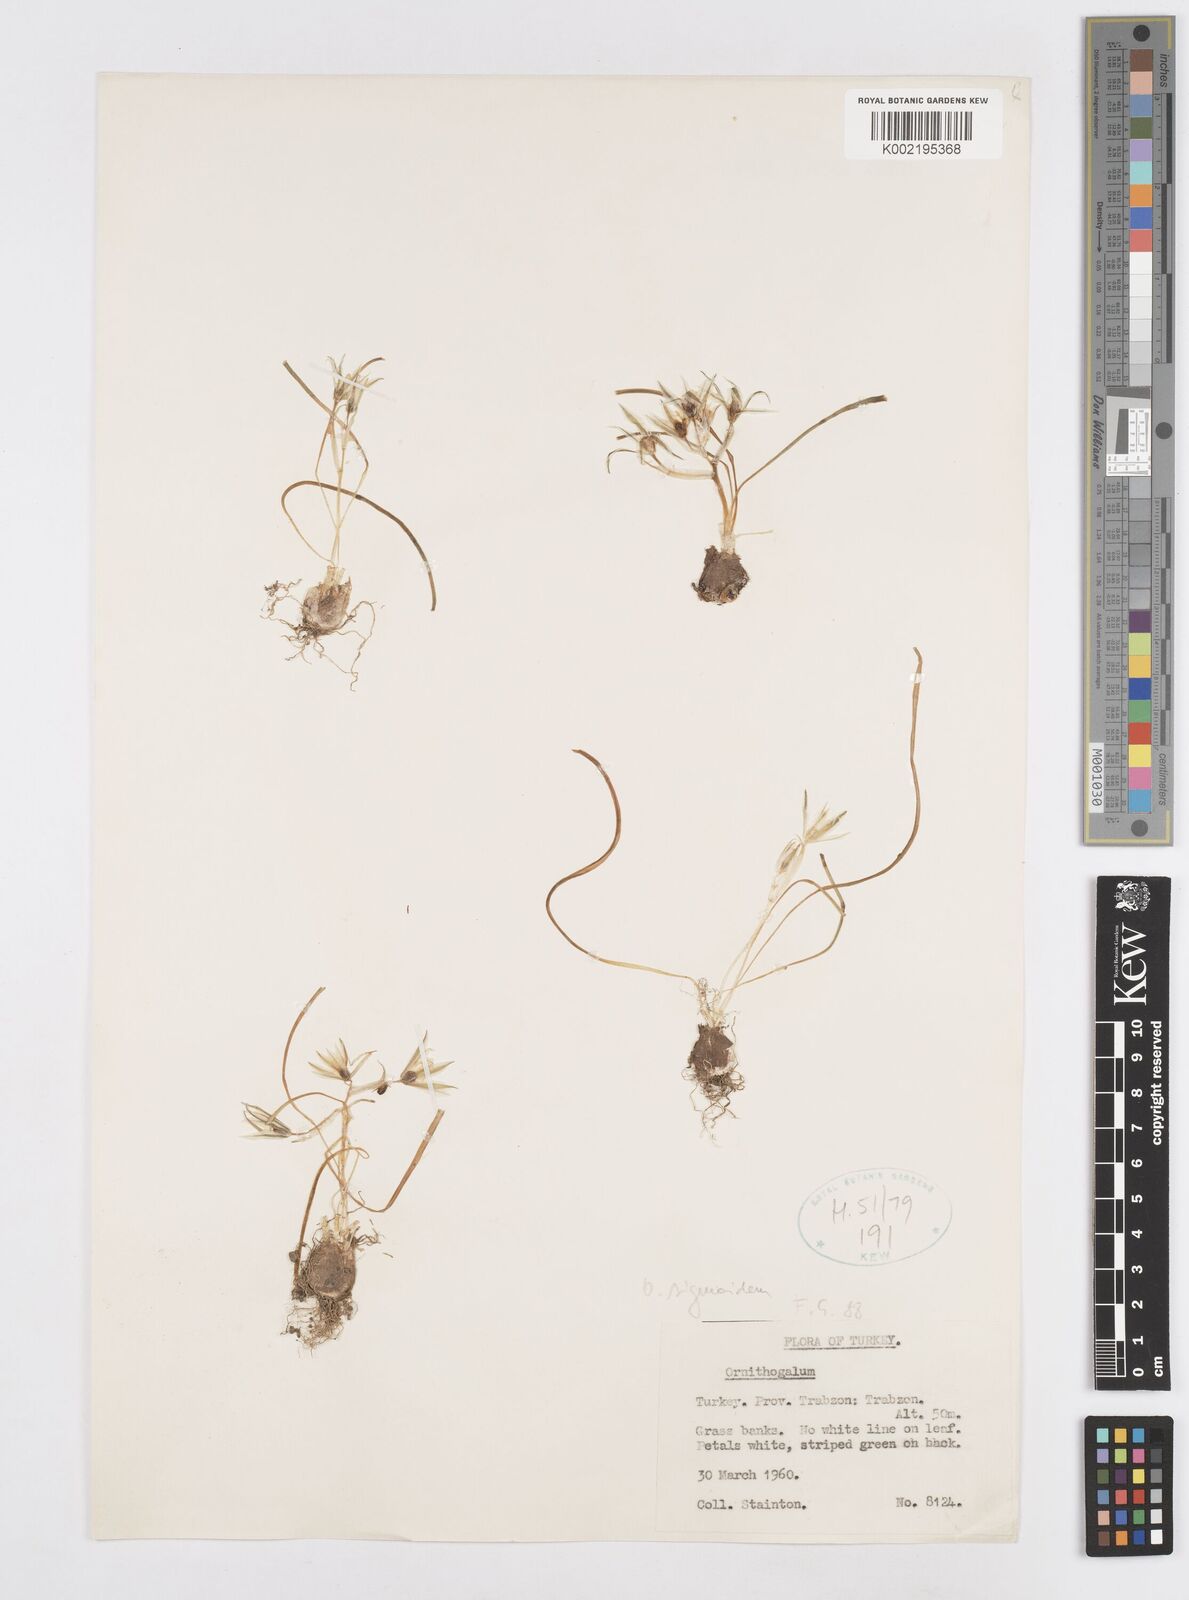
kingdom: Plantae
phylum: Tracheophyta
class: Liliopsida
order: Asparagales
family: Asparagaceae
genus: Ornithogalum
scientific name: Ornithogalum sigmoideum
